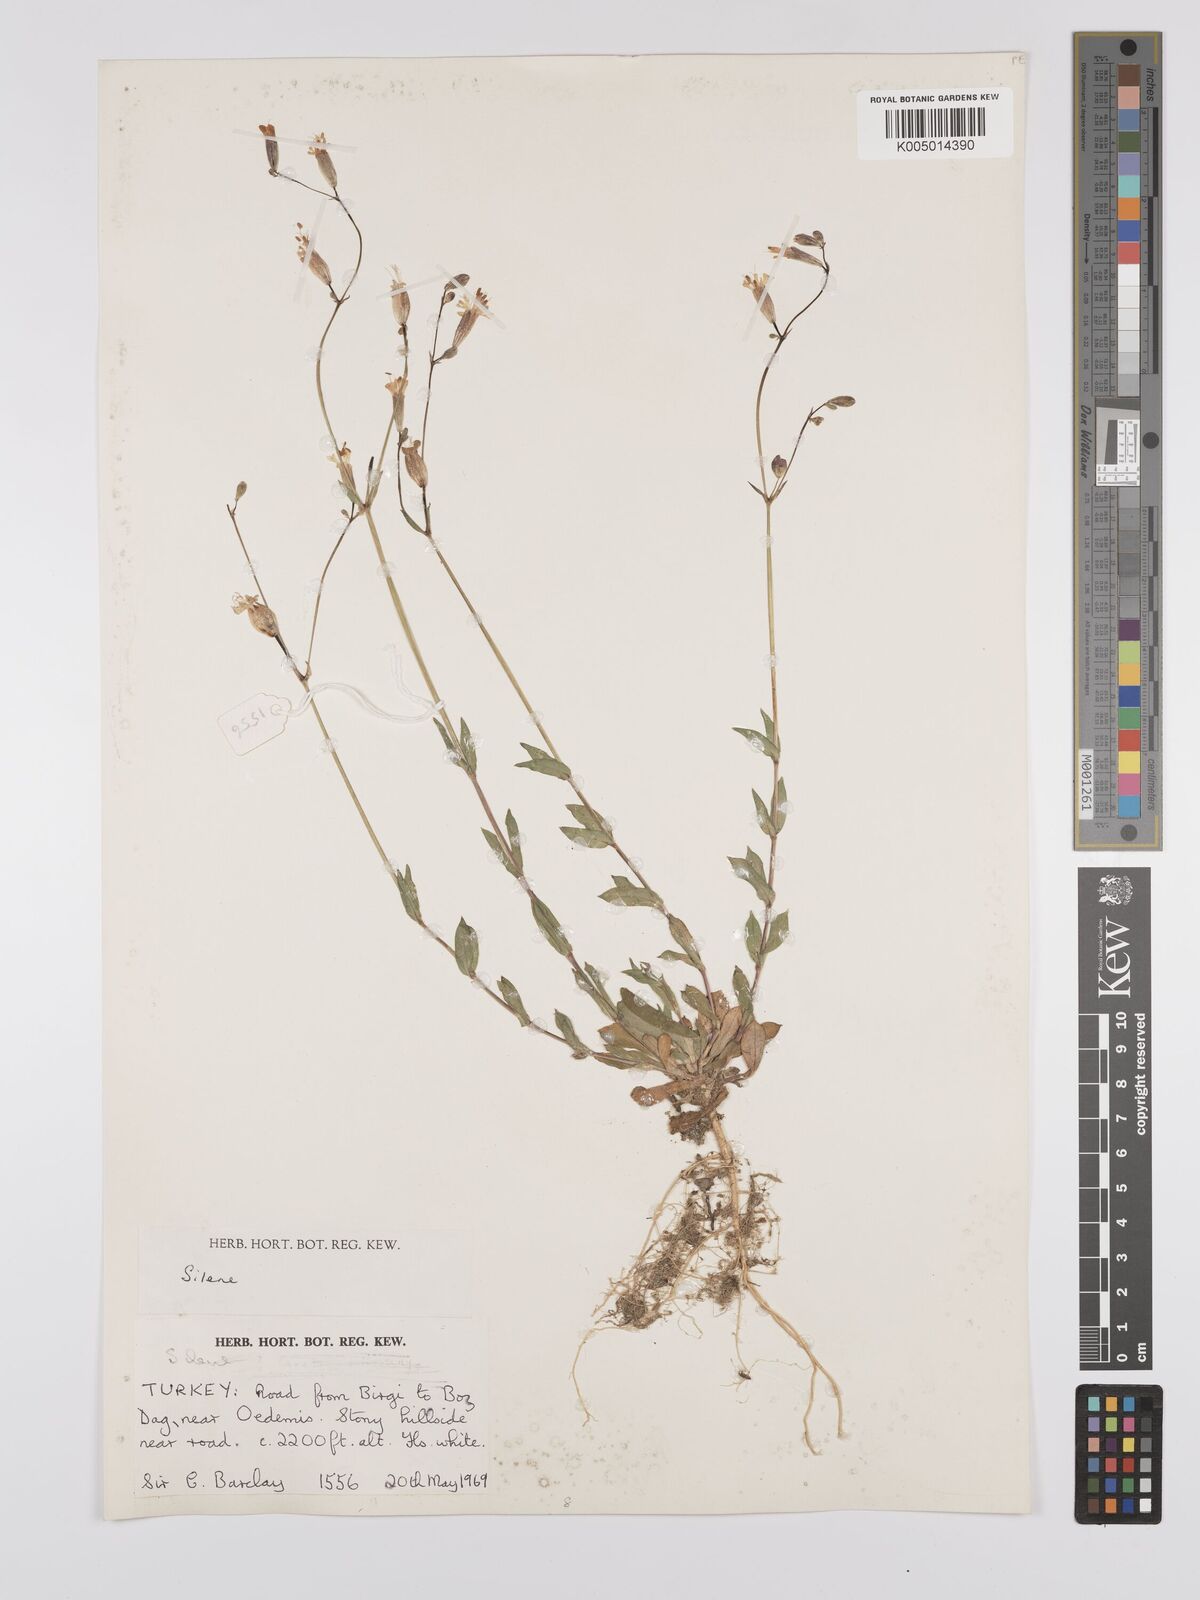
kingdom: Plantae
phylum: Tracheophyta
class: Magnoliopsida
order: Caryophyllales
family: Caryophyllaceae
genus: Silene
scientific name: Silene
